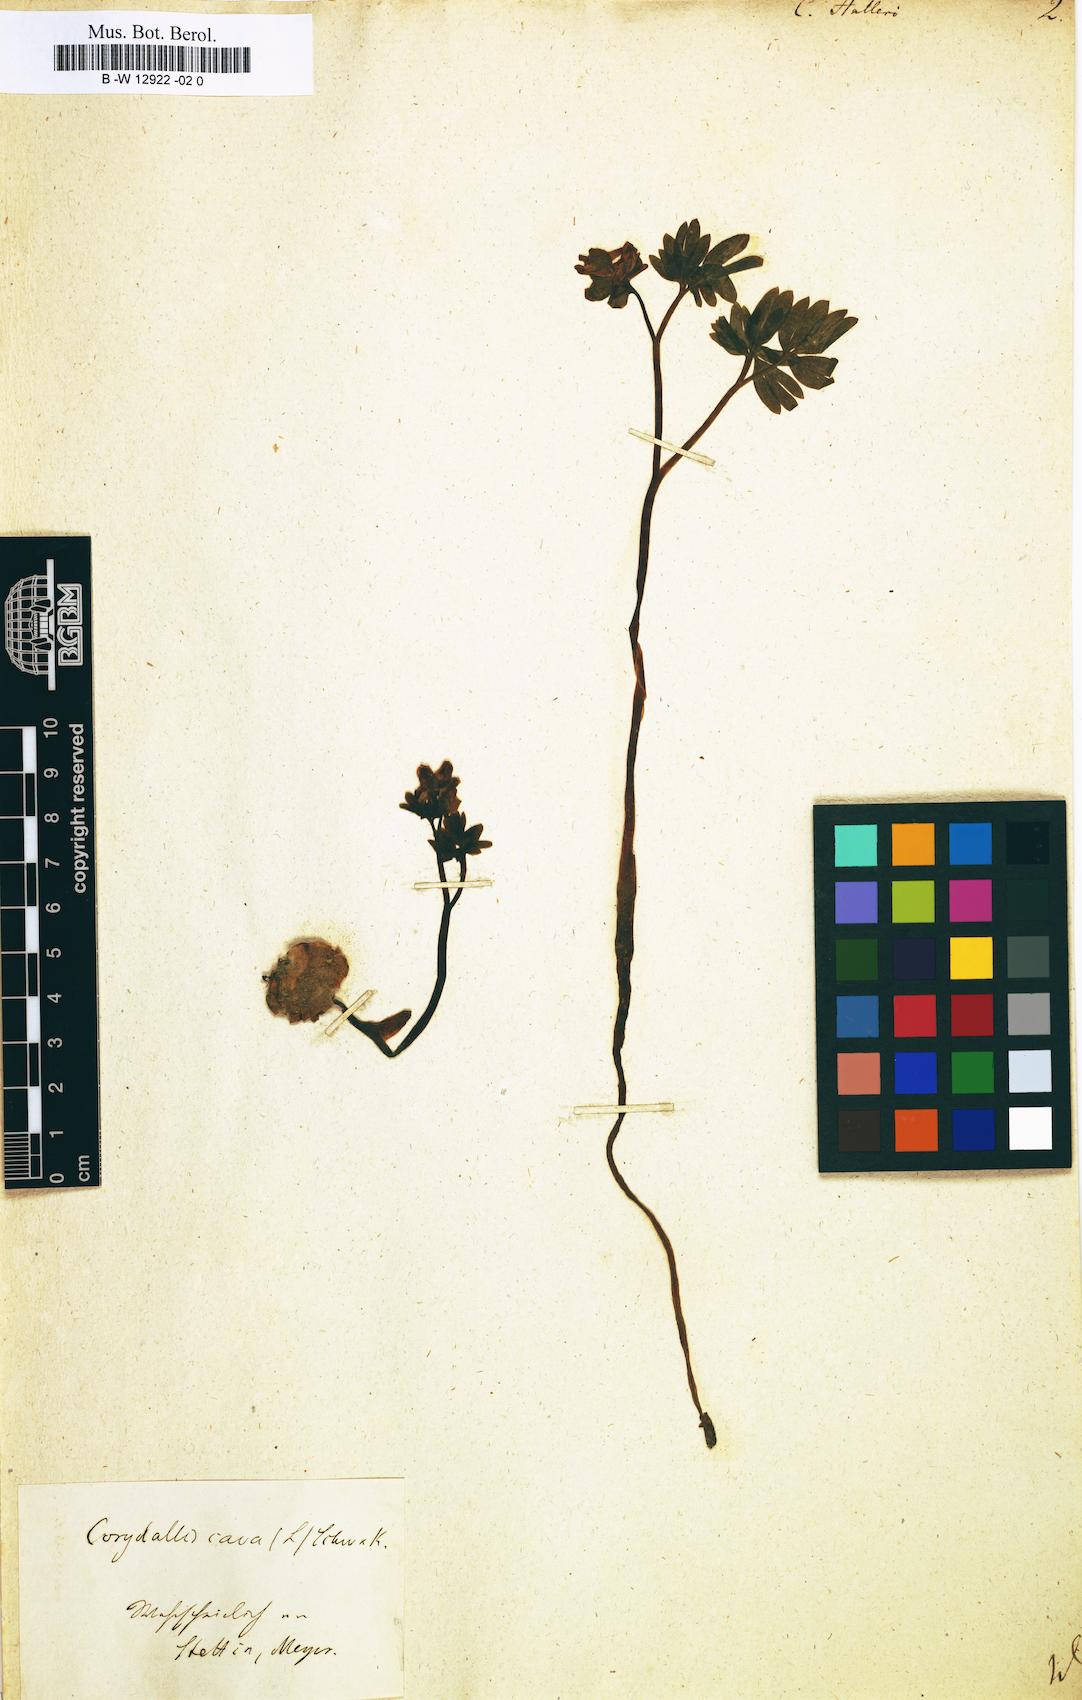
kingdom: Plantae
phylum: Tracheophyta
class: Magnoliopsida
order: Ranunculales
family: Papaveraceae
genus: Corydalis
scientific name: Corydalis solida
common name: Bird-in-a-bush
